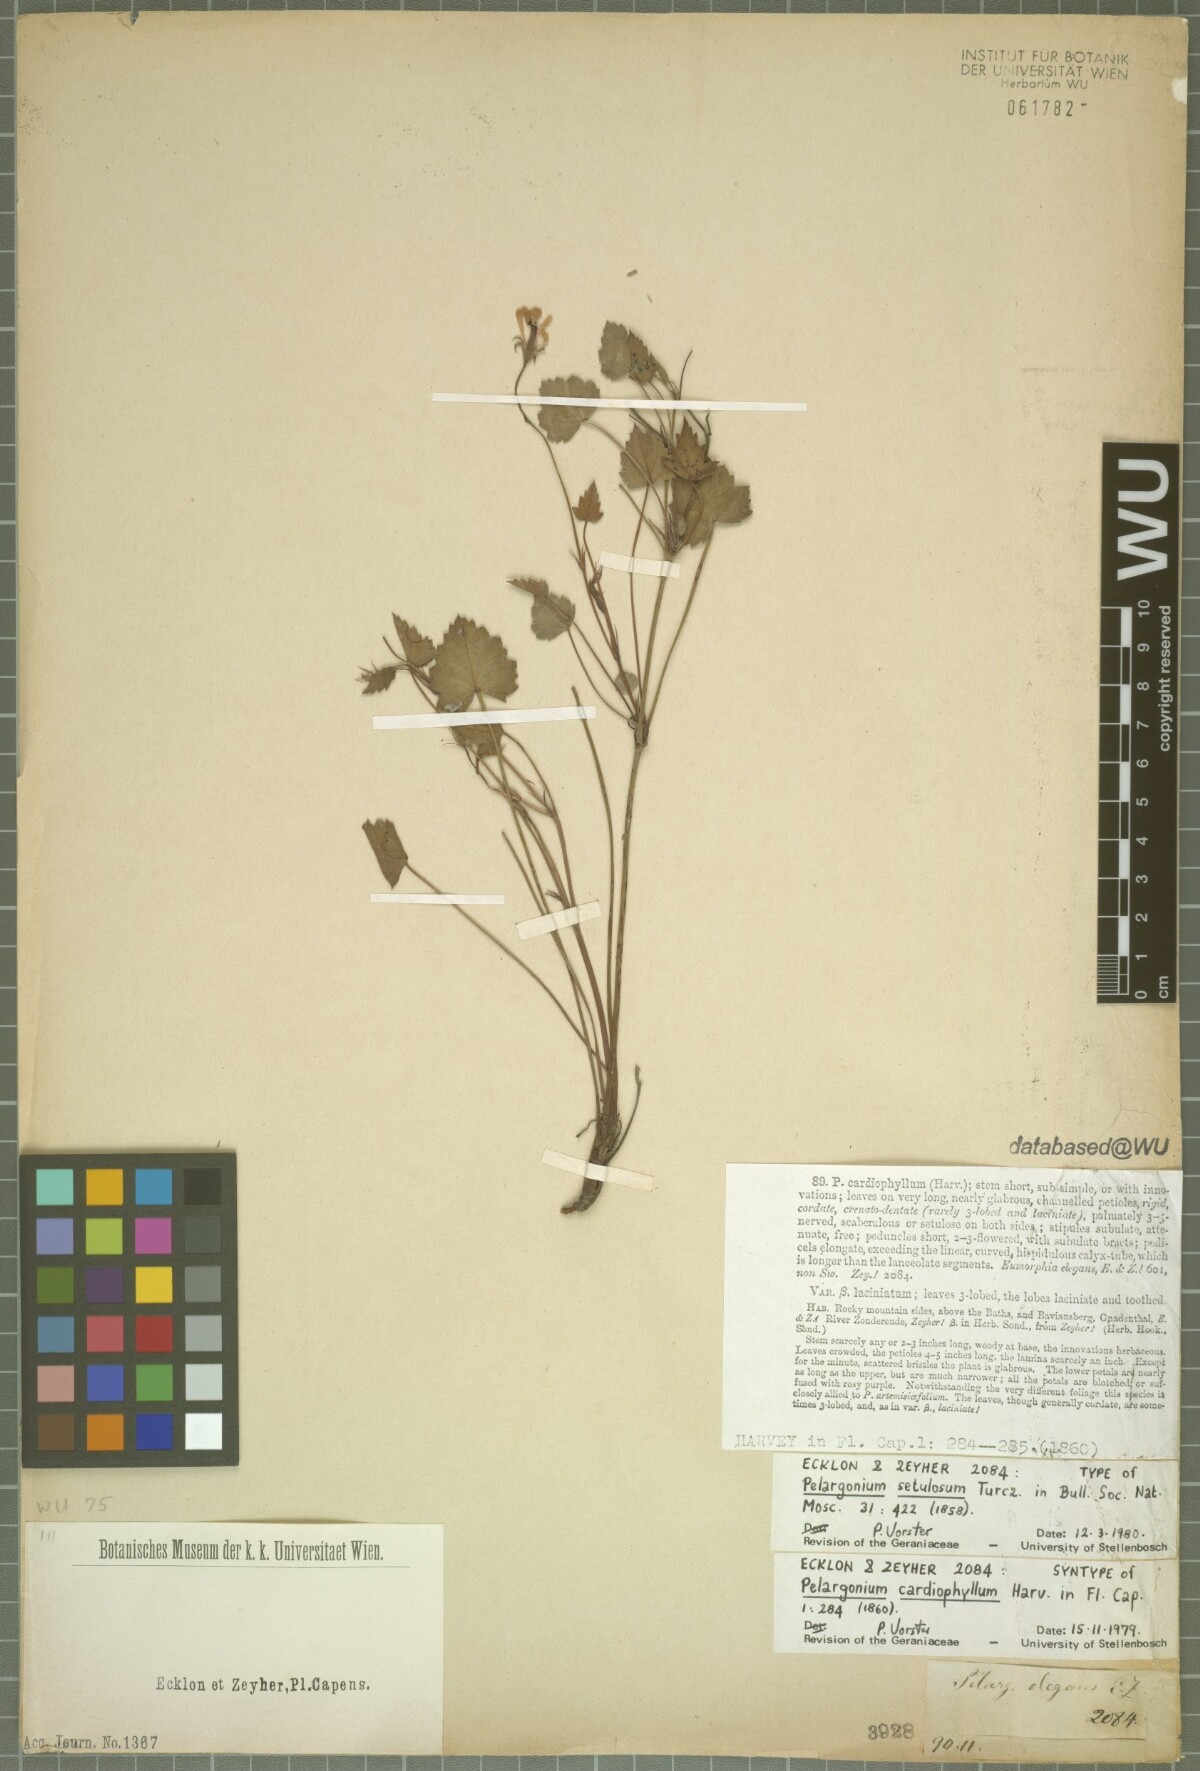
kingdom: Plantae
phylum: Tracheophyta
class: Magnoliopsida
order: Geraniales
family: Geraniaceae
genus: Pelargonium
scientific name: Pelargonium setulosum
